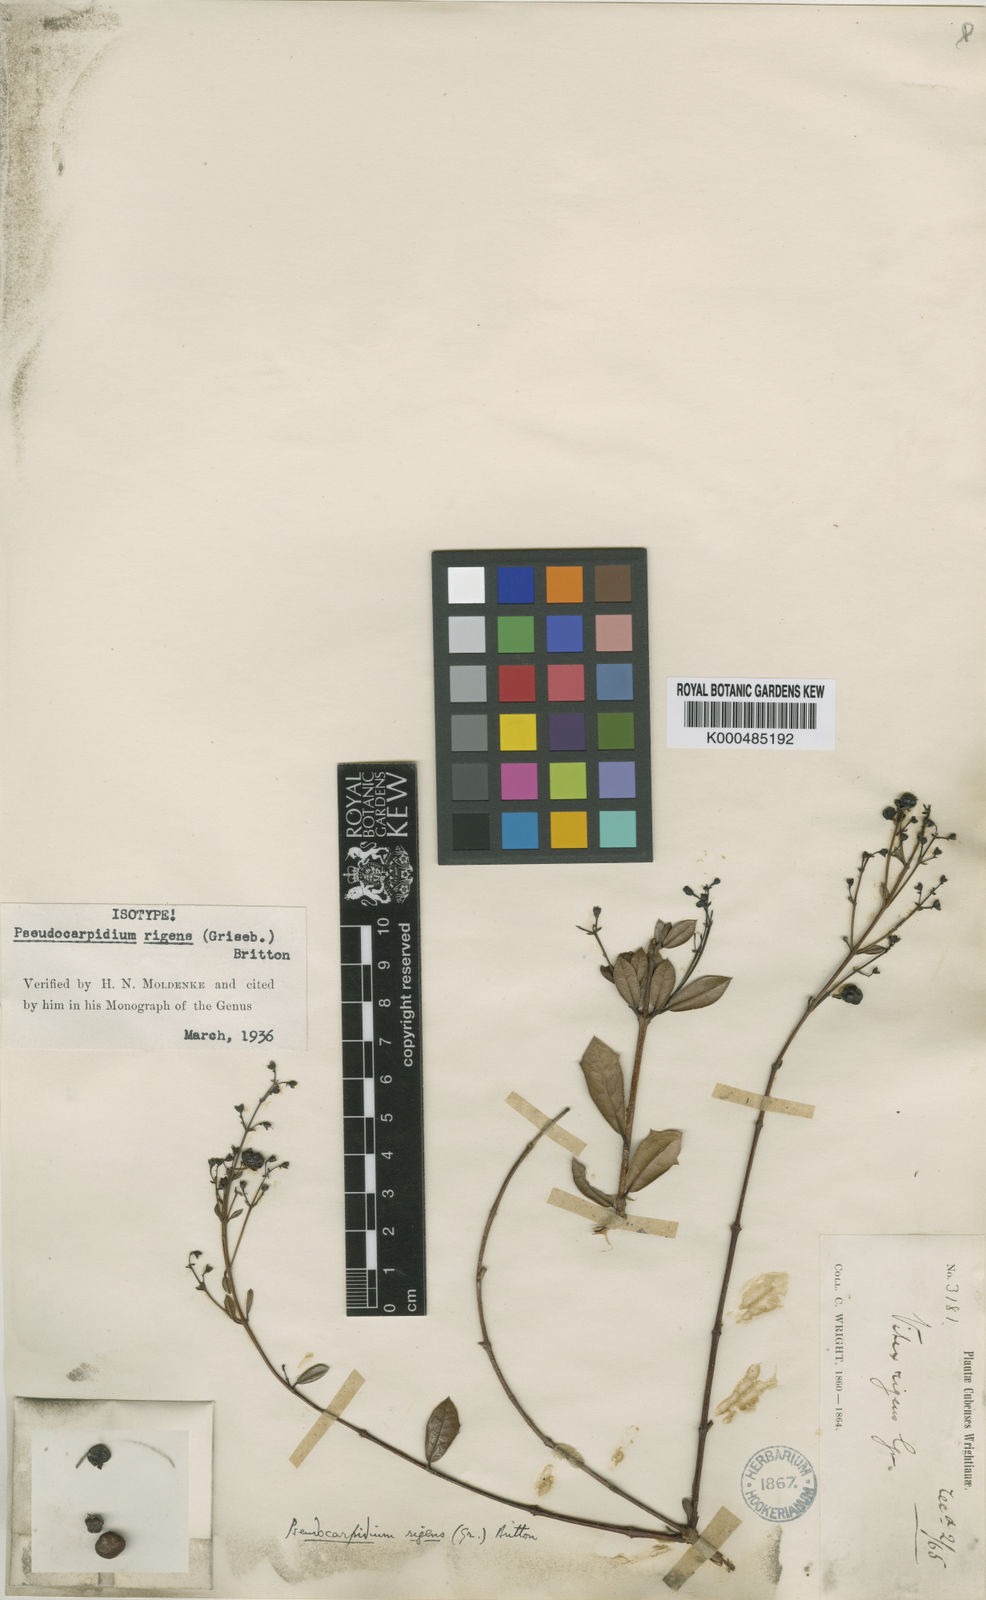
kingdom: Plantae
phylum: Tracheophyta
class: Magnoliopsida
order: Lamiales
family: Lamiaceae
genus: Pseudocarpidium
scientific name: Pseudocarpidium rigens
